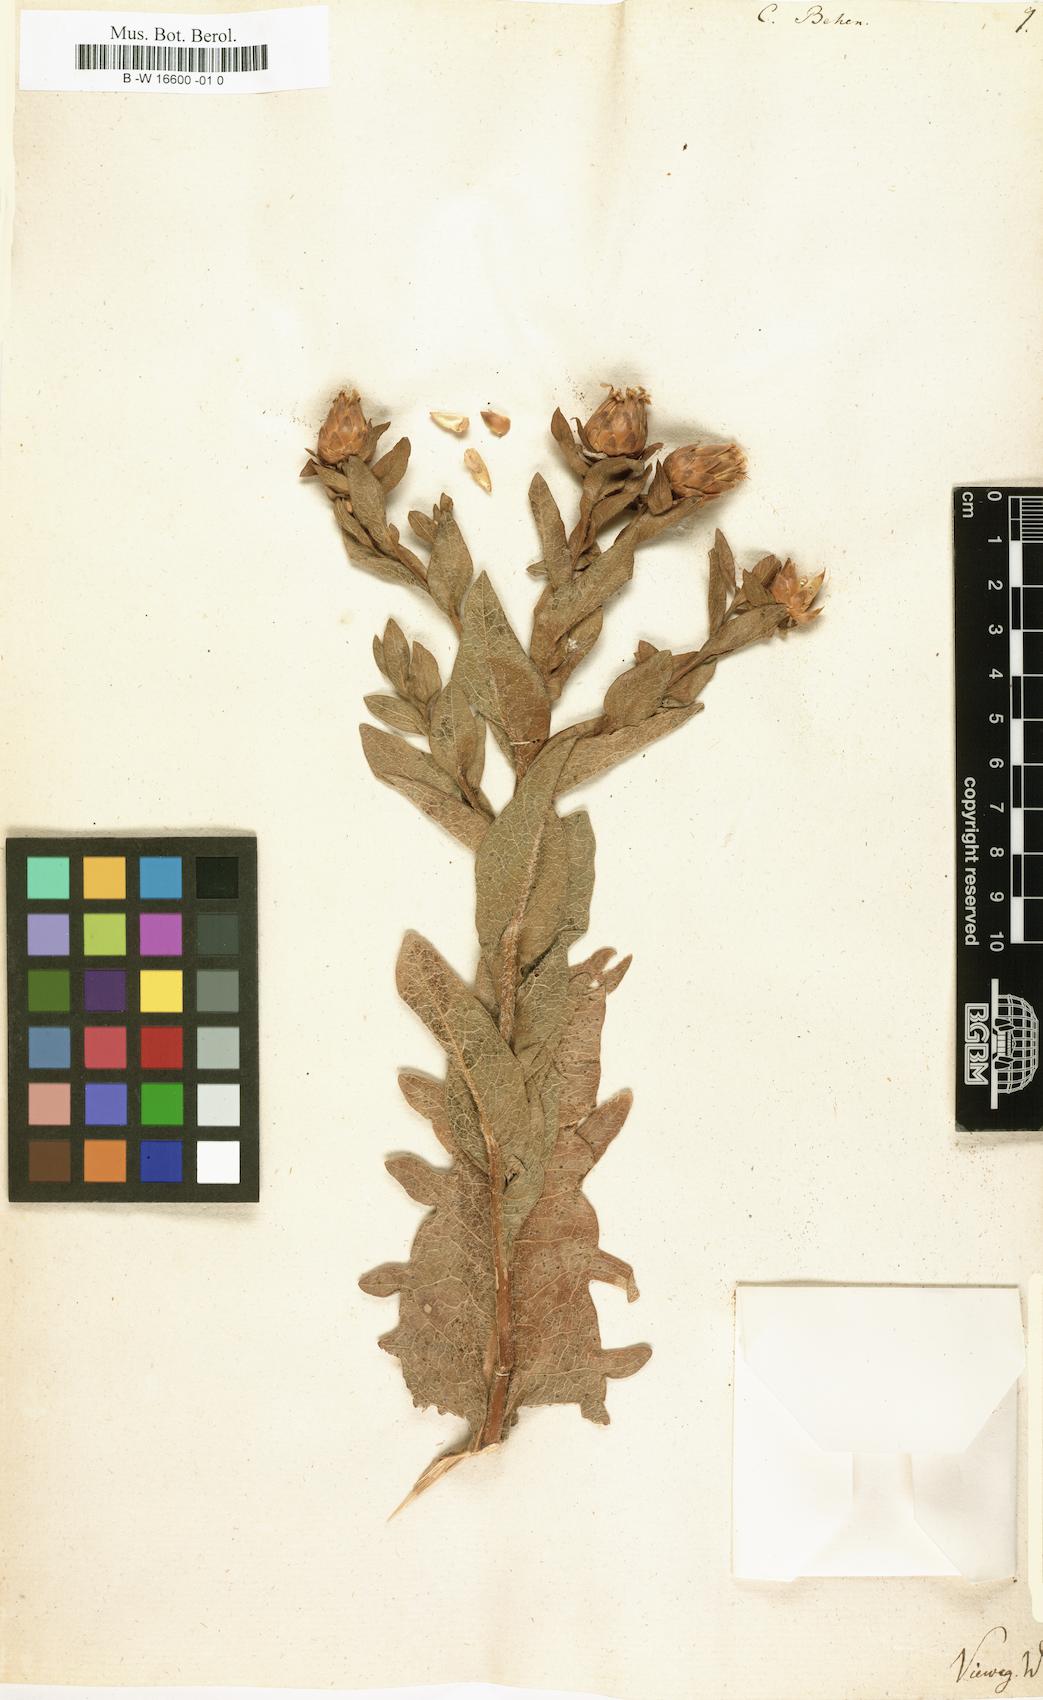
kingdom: Plantae
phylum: Tracheophyta
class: Magnoliopsida
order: Asterales
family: Asteraceae
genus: Centaurea
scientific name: Centaurea behen
